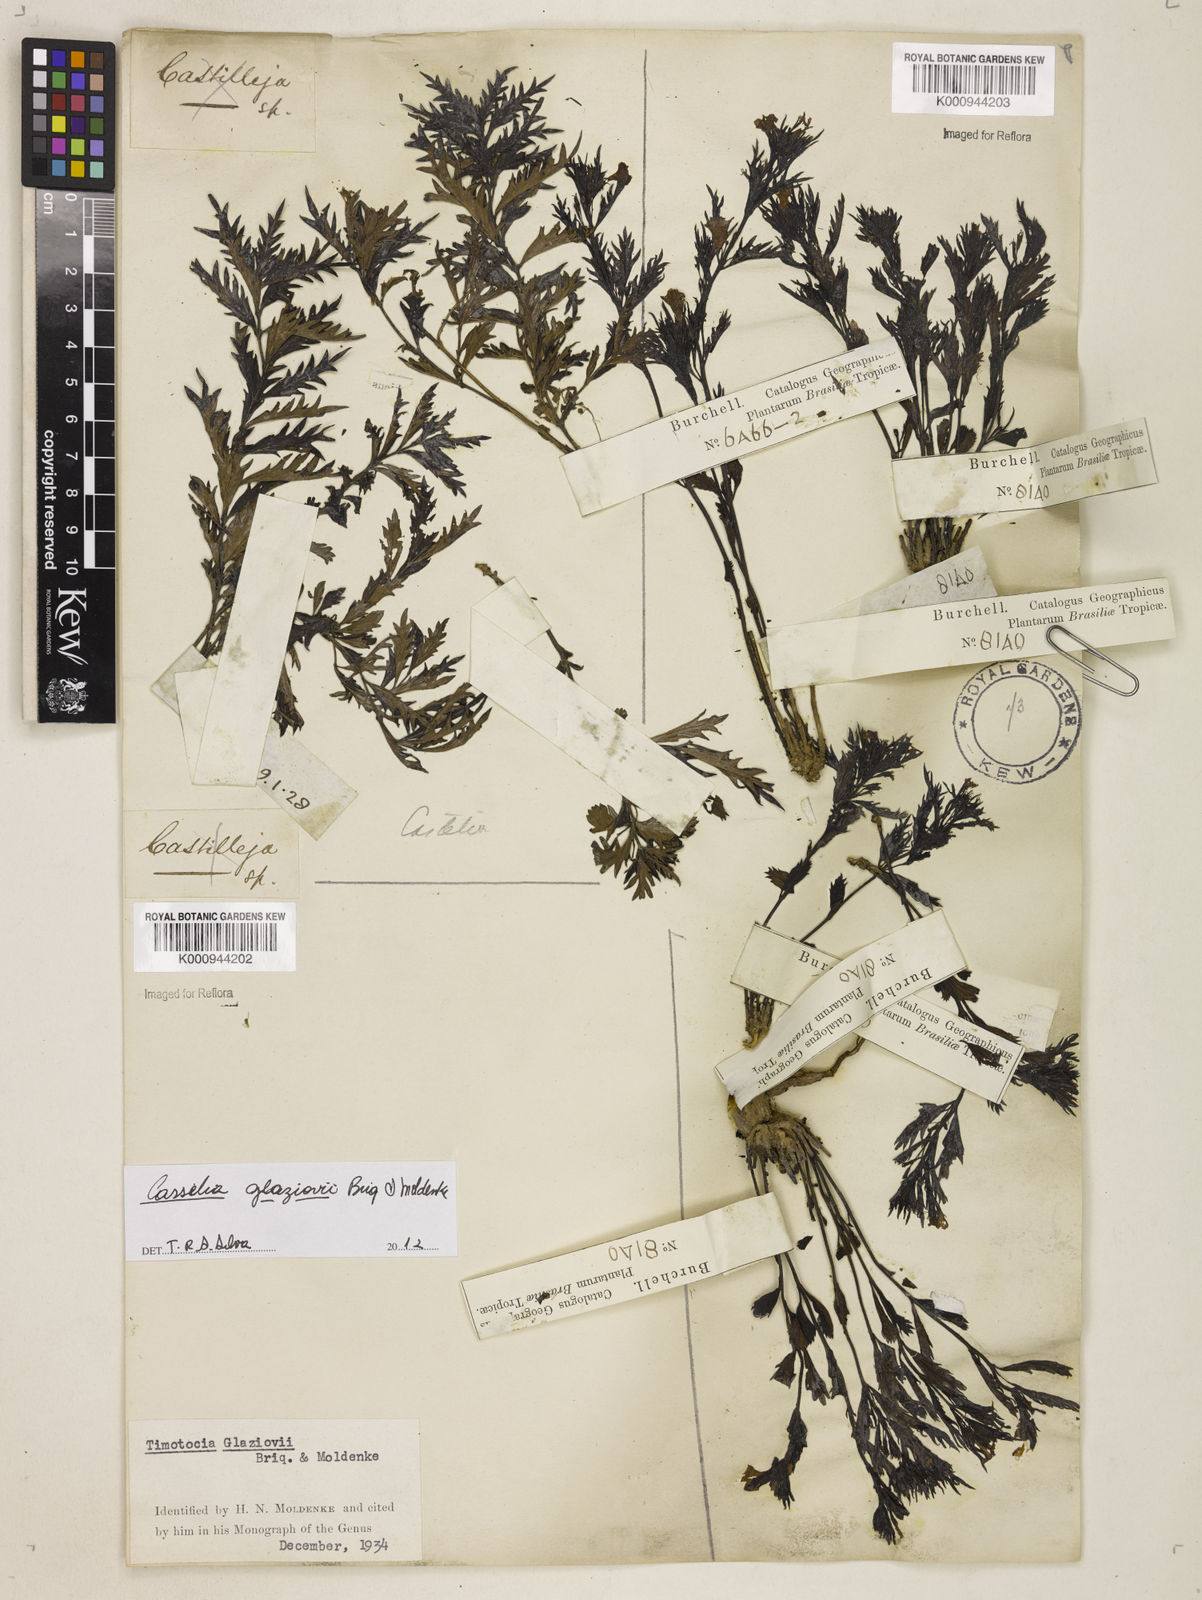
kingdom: Plantae
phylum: Tracheophyta
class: Magnoliopsida
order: Lamiales
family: Verbenaceae
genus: Casselia
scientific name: Casselia glaziovii
